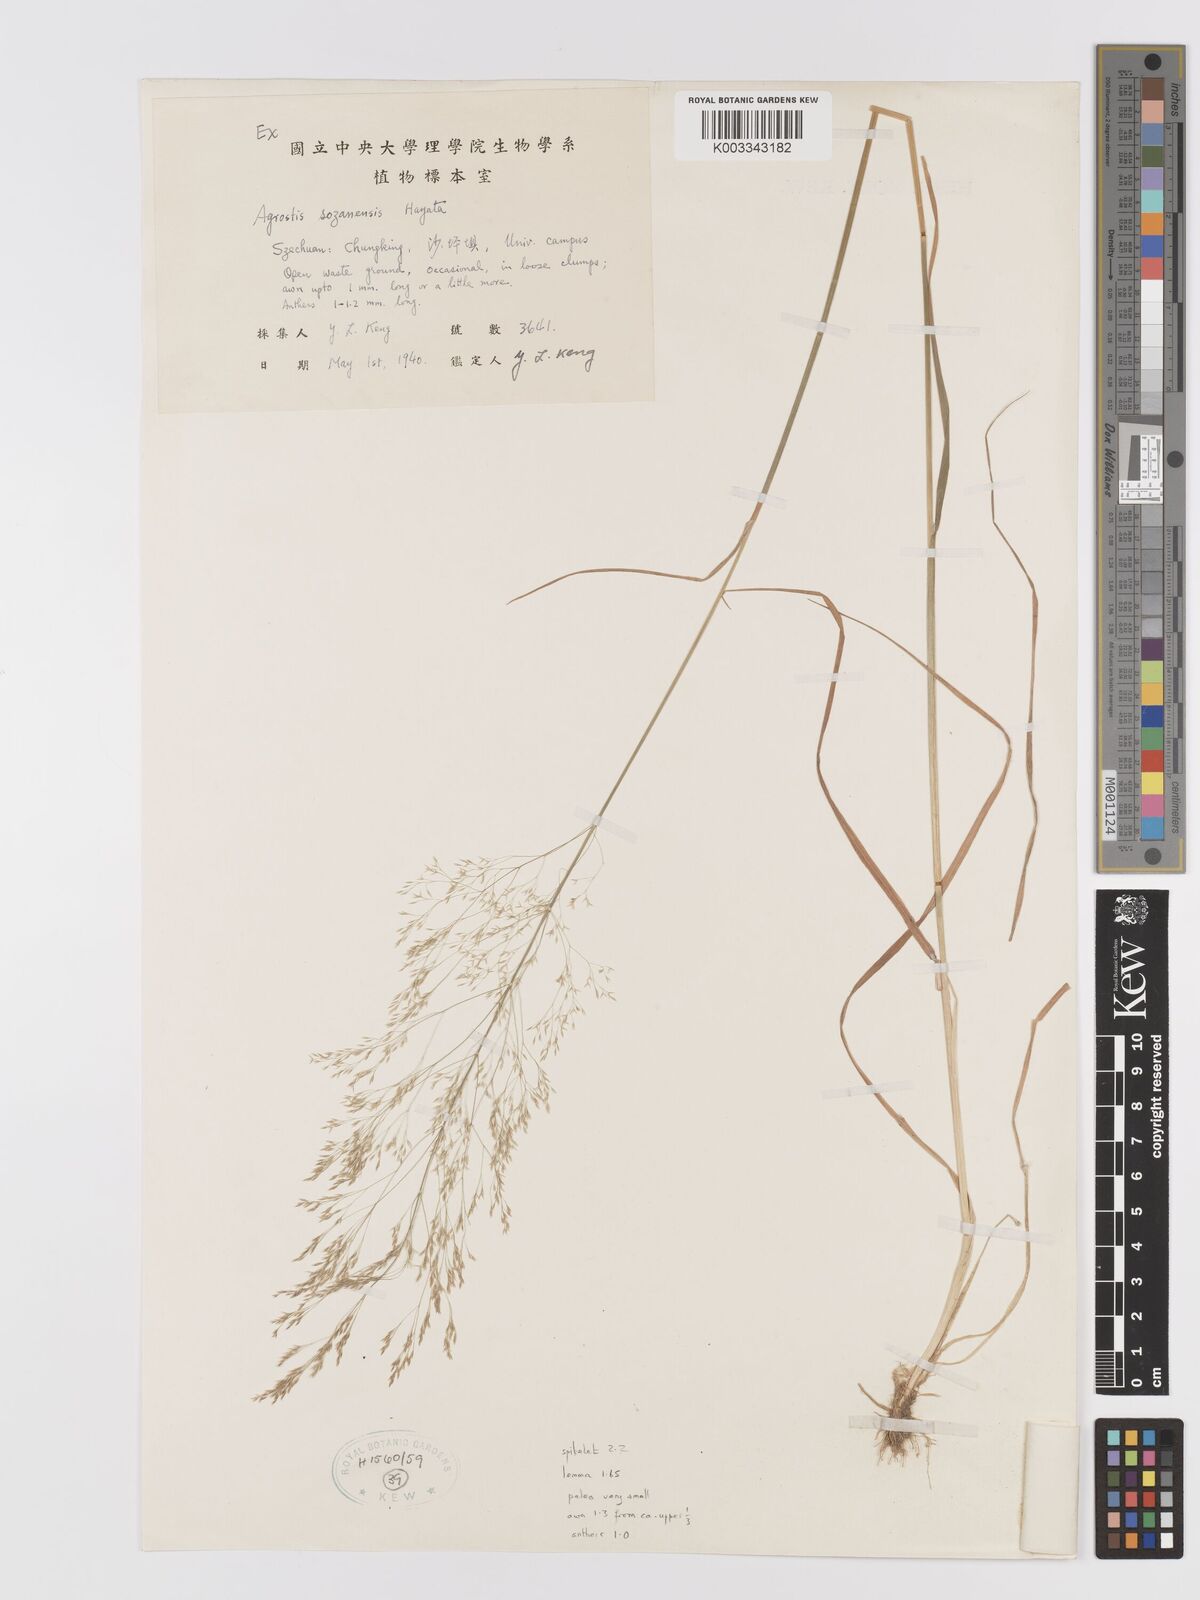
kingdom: Plantae
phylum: Tracheophyta
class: Liliopsida
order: Poales
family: Poaceae
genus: Agrostis
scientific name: Agrostis infirma
